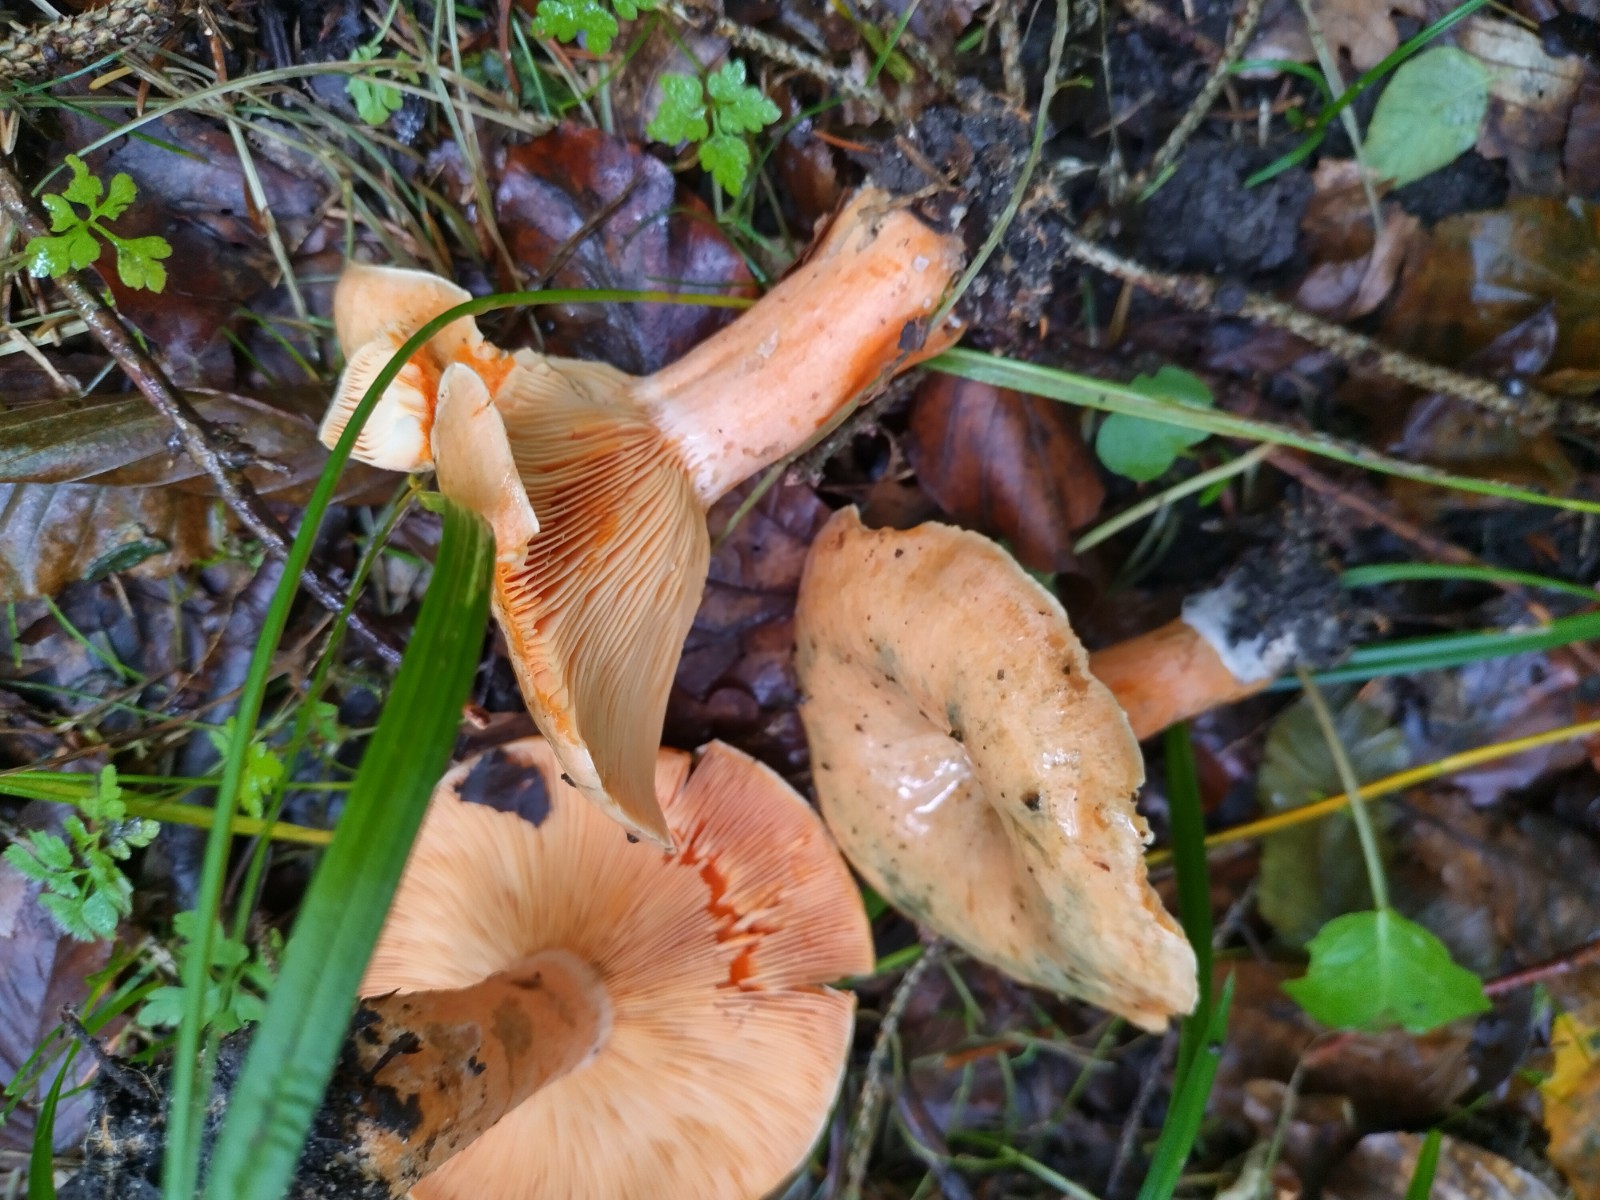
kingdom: Fungi
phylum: Basidiomycota
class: Agaricomycetes
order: Russulales
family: Russulaceae
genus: Lactarius
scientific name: Lactarius deterrimus
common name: gran-mælkehat
